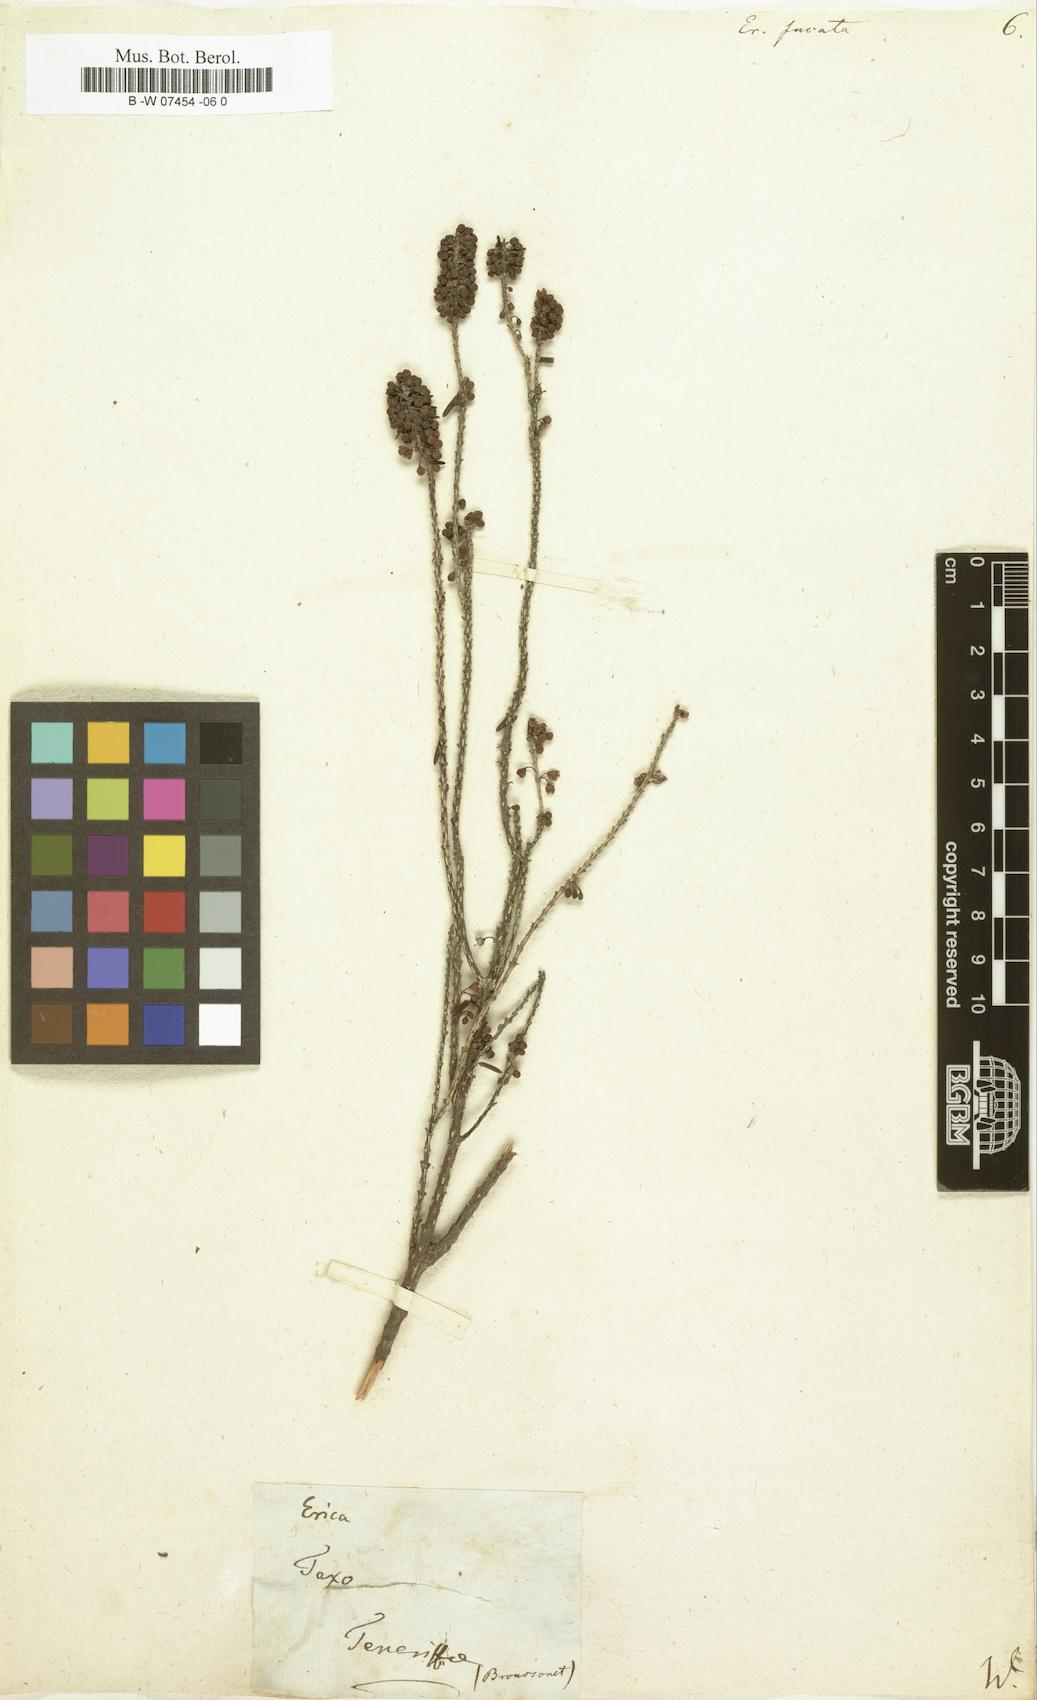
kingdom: Plantae
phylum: Tracheophyta
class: Magnoliopsida
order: Ericales
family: Ericaceae
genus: Erica
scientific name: Erica rubiginosa
